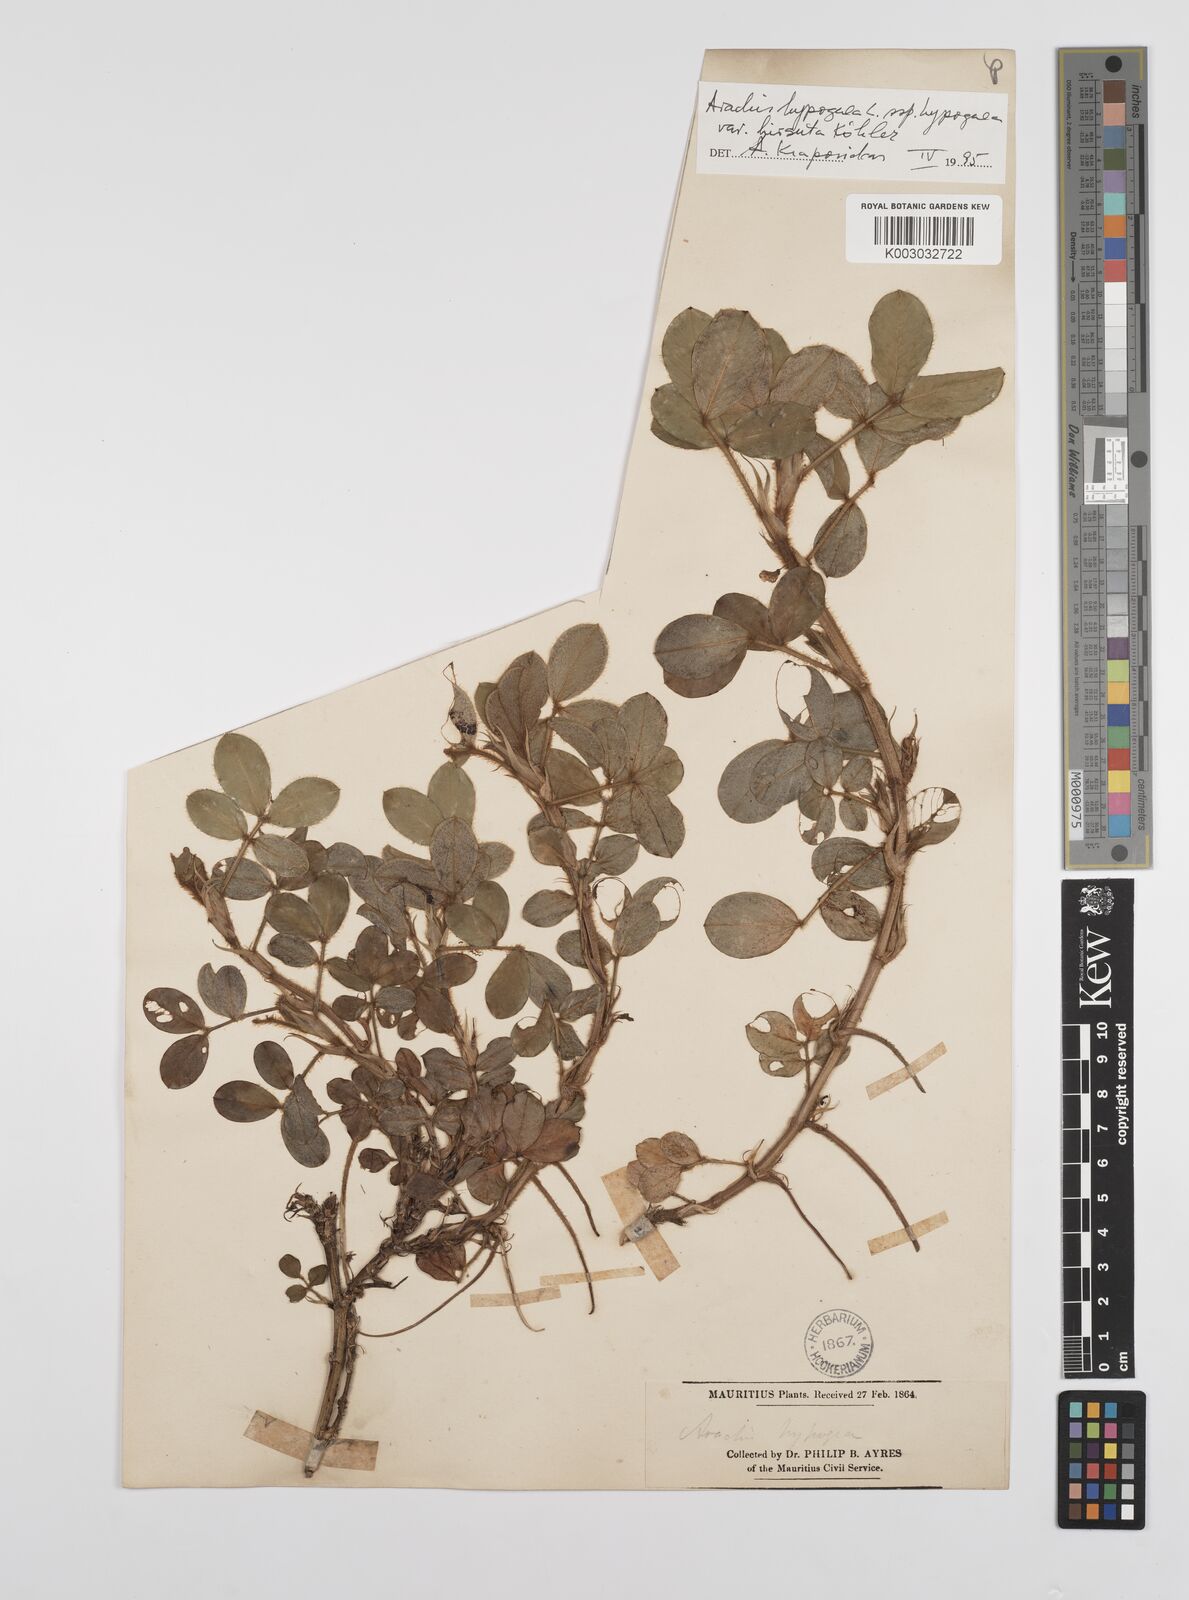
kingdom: Plantae
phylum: Tracheophyta
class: Magnoliopsida
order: Fabales
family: Fabaceae
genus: Arachis
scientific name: Arachis hypogaea
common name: Peanut
